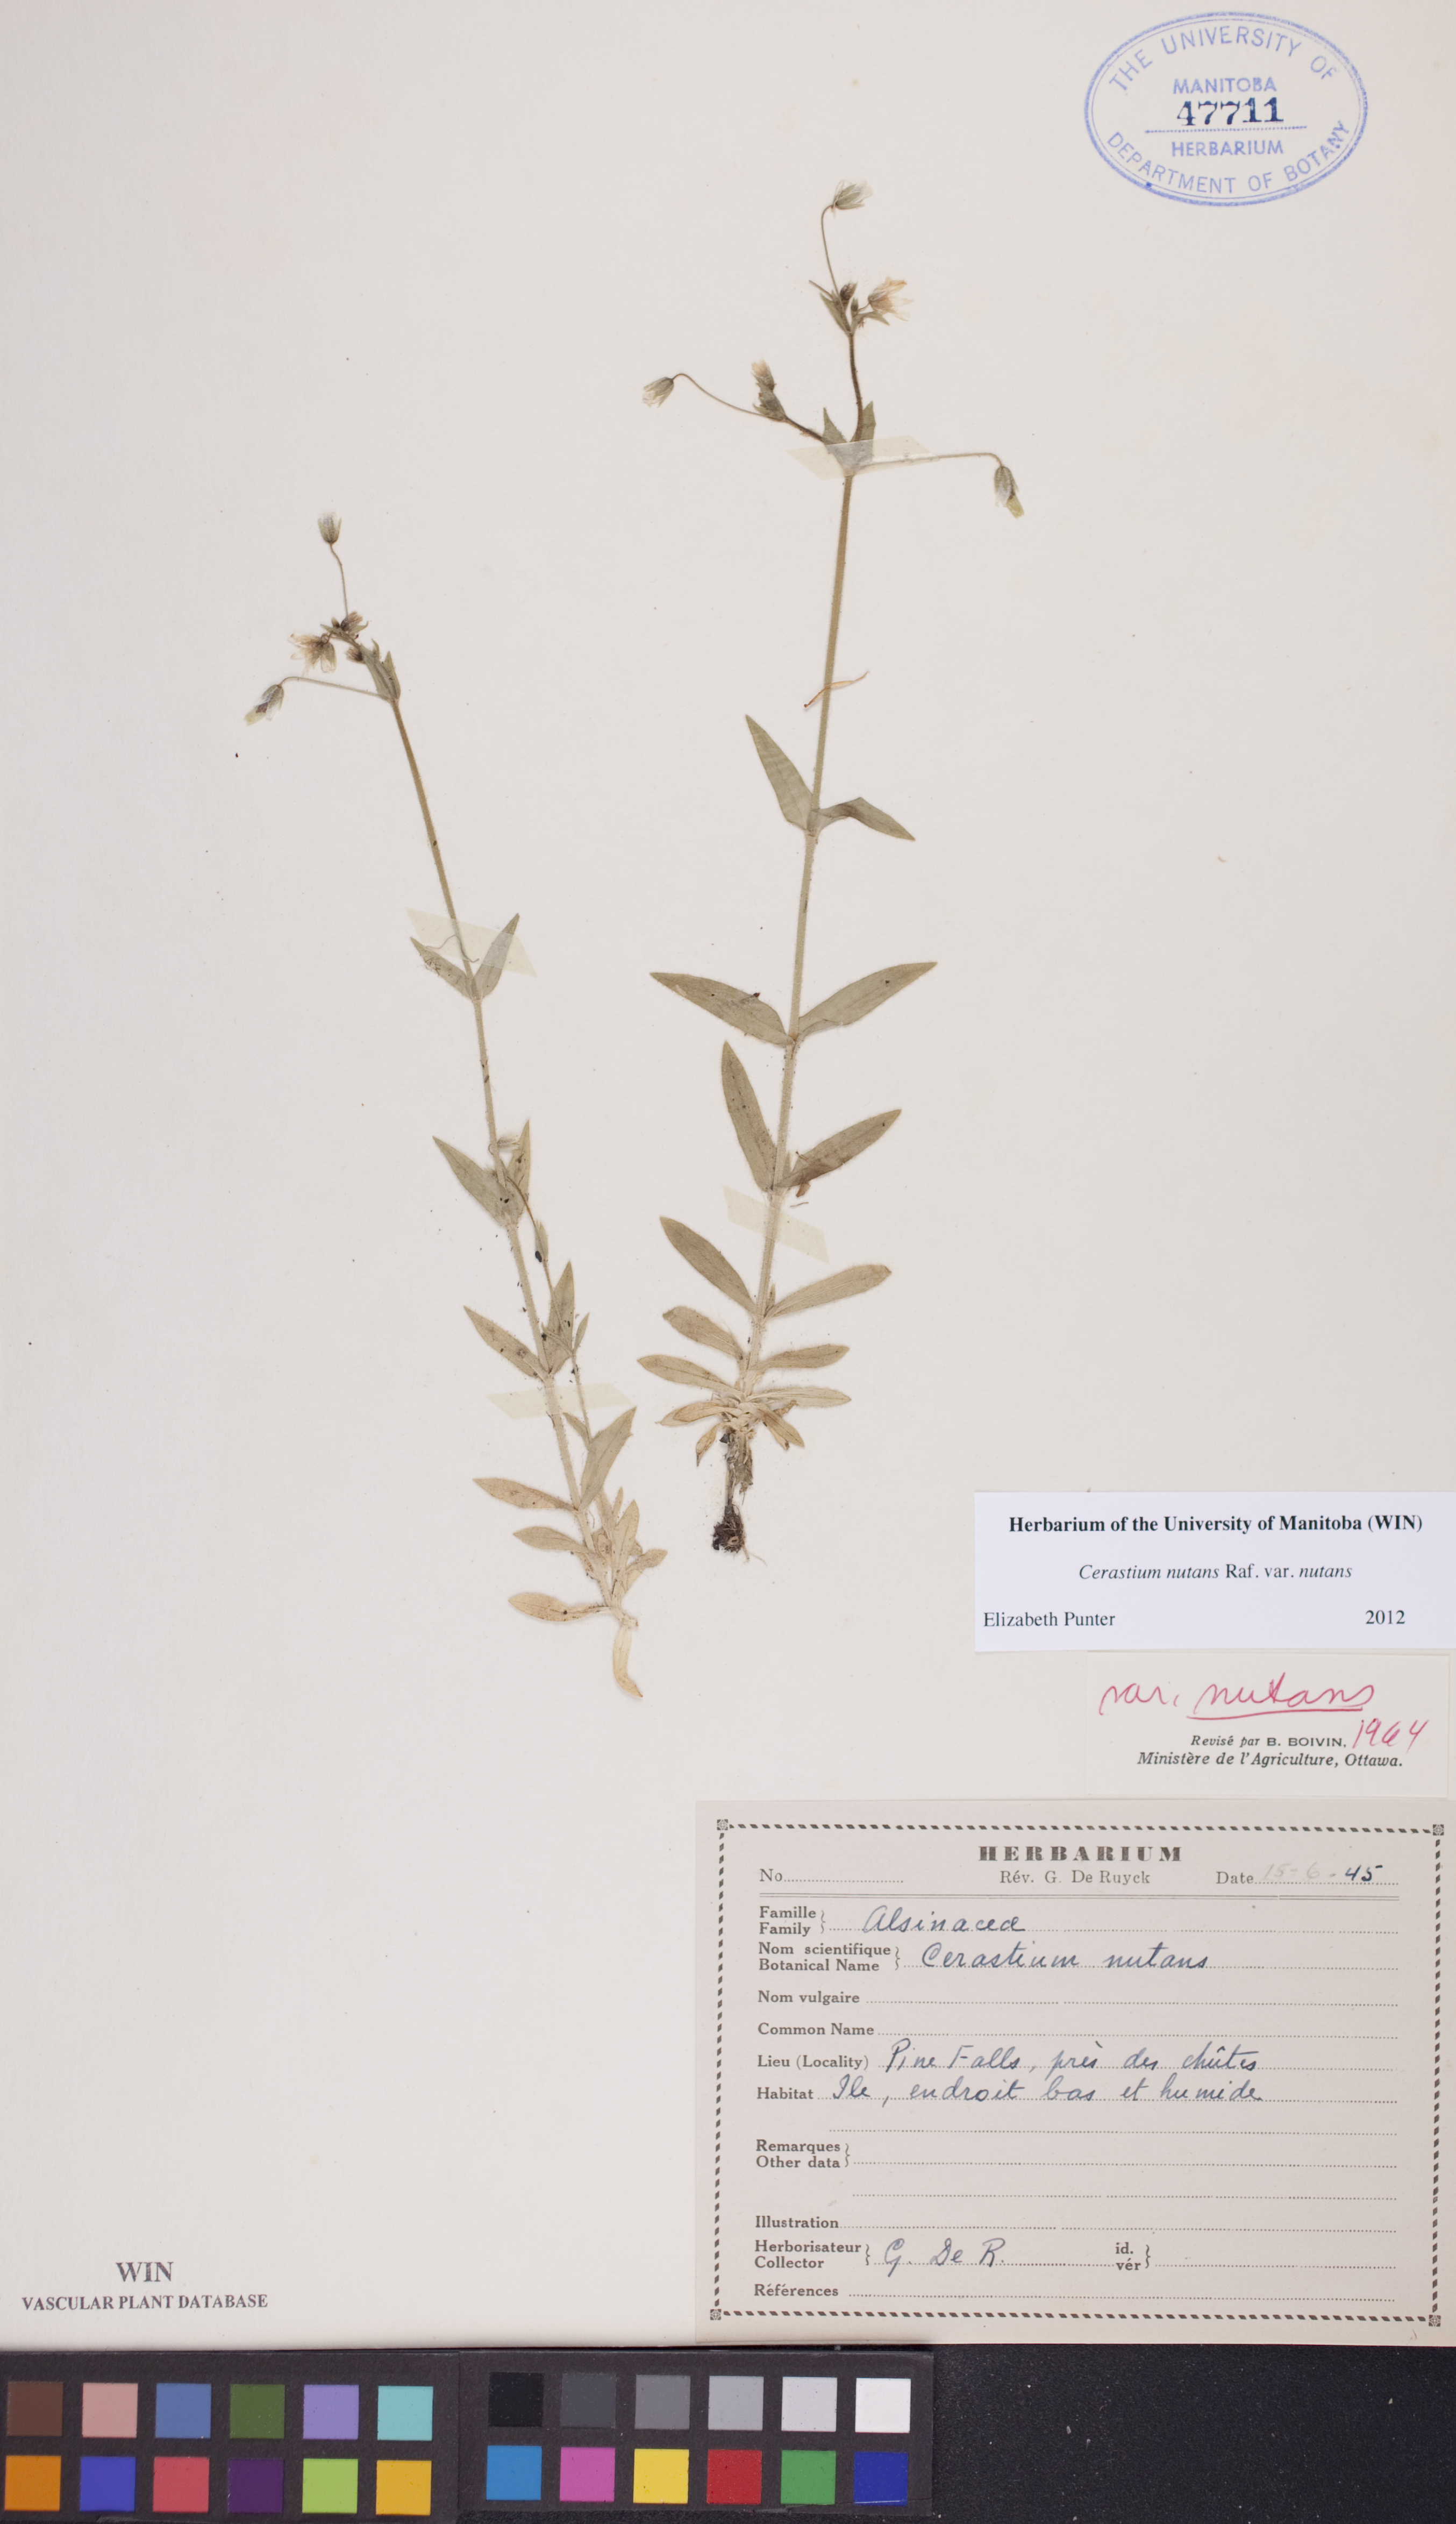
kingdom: Plantae
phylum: Tracheophyta
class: Magnoliopsida
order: Caryophyllales
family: Caryophyllaceae
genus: Cerastium
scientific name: Cerastium nutans
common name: Long-stalked chickweed
